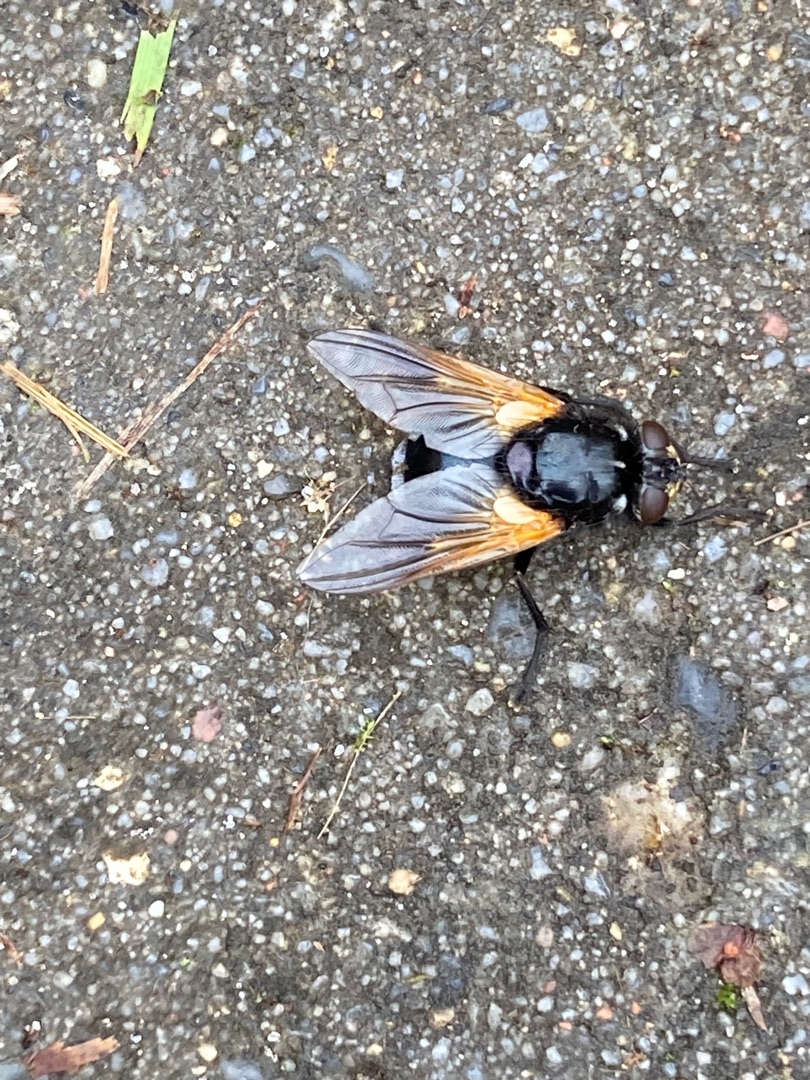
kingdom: Animalia
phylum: Arthropoda
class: Insecta
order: Diptera
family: Muscidae
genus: Mesembrina
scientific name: Mesembrina meridiana
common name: Gulvinget flue
